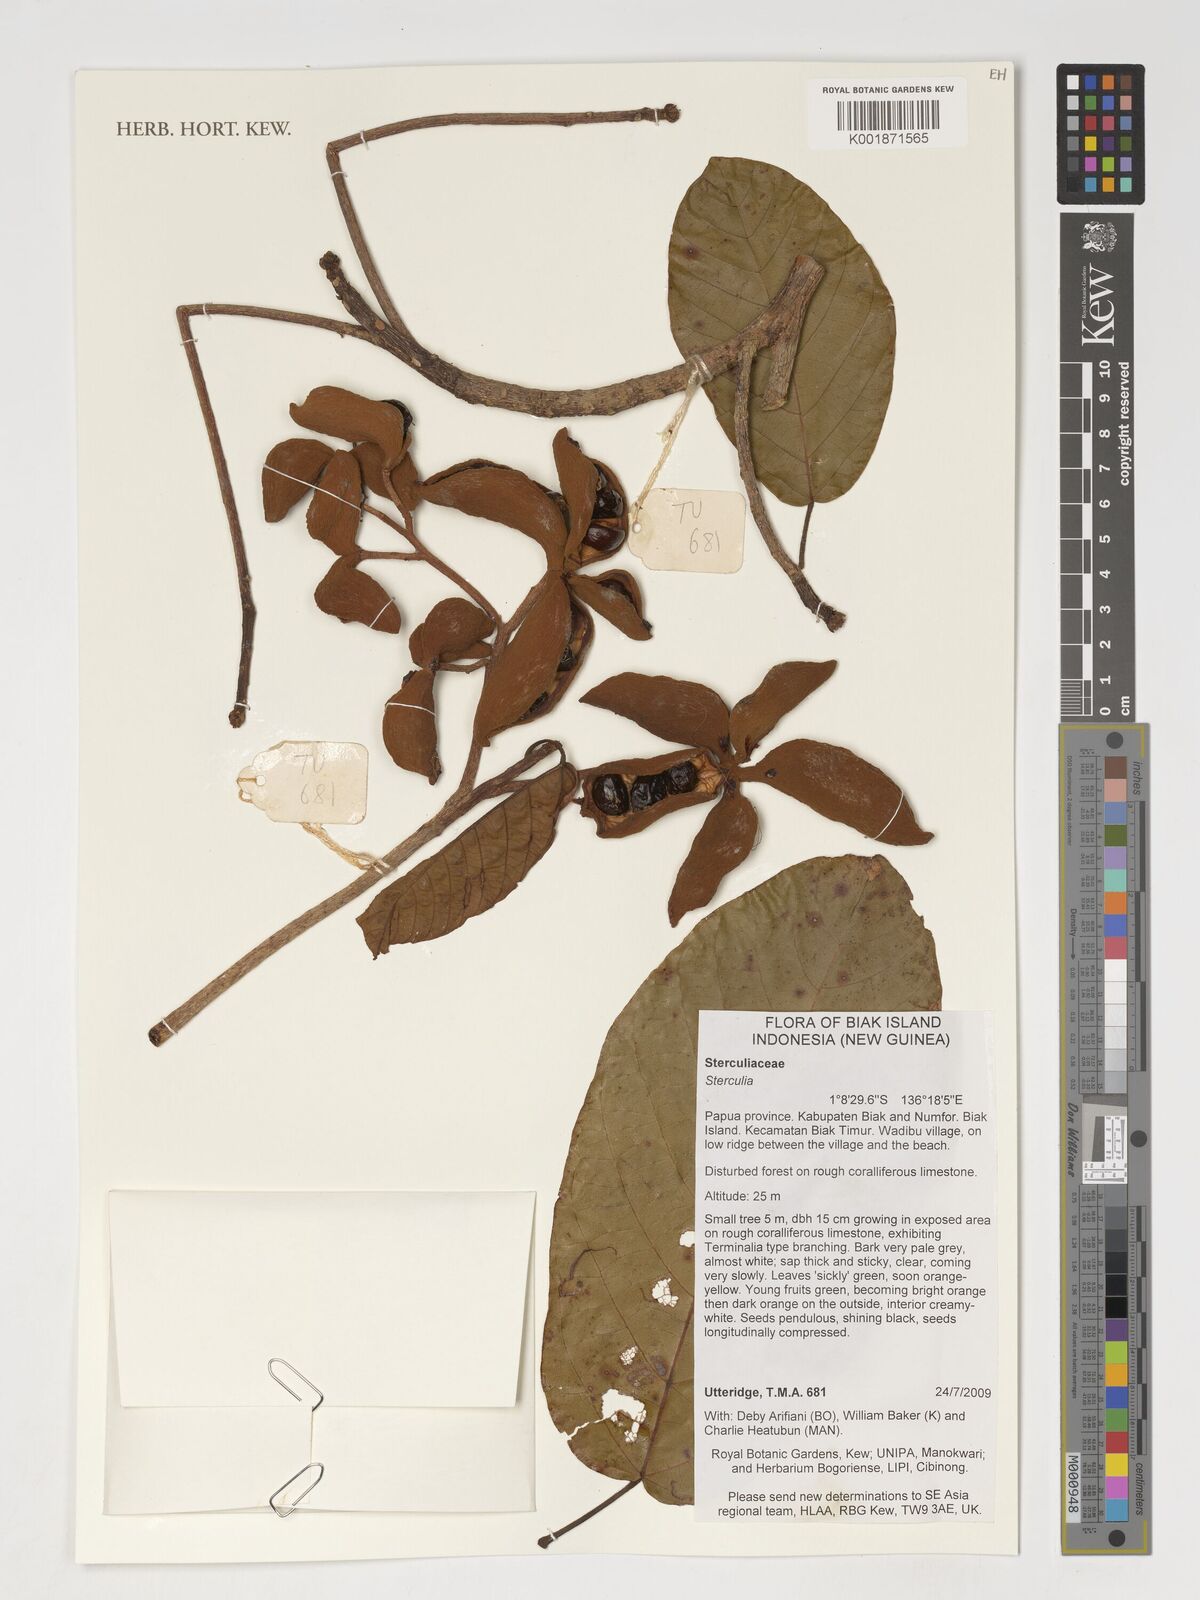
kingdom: Plantae
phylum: Tracheophyta
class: Magnoliopsida
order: Malvales
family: Malvaceae
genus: Sterculia
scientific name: Sterculia
